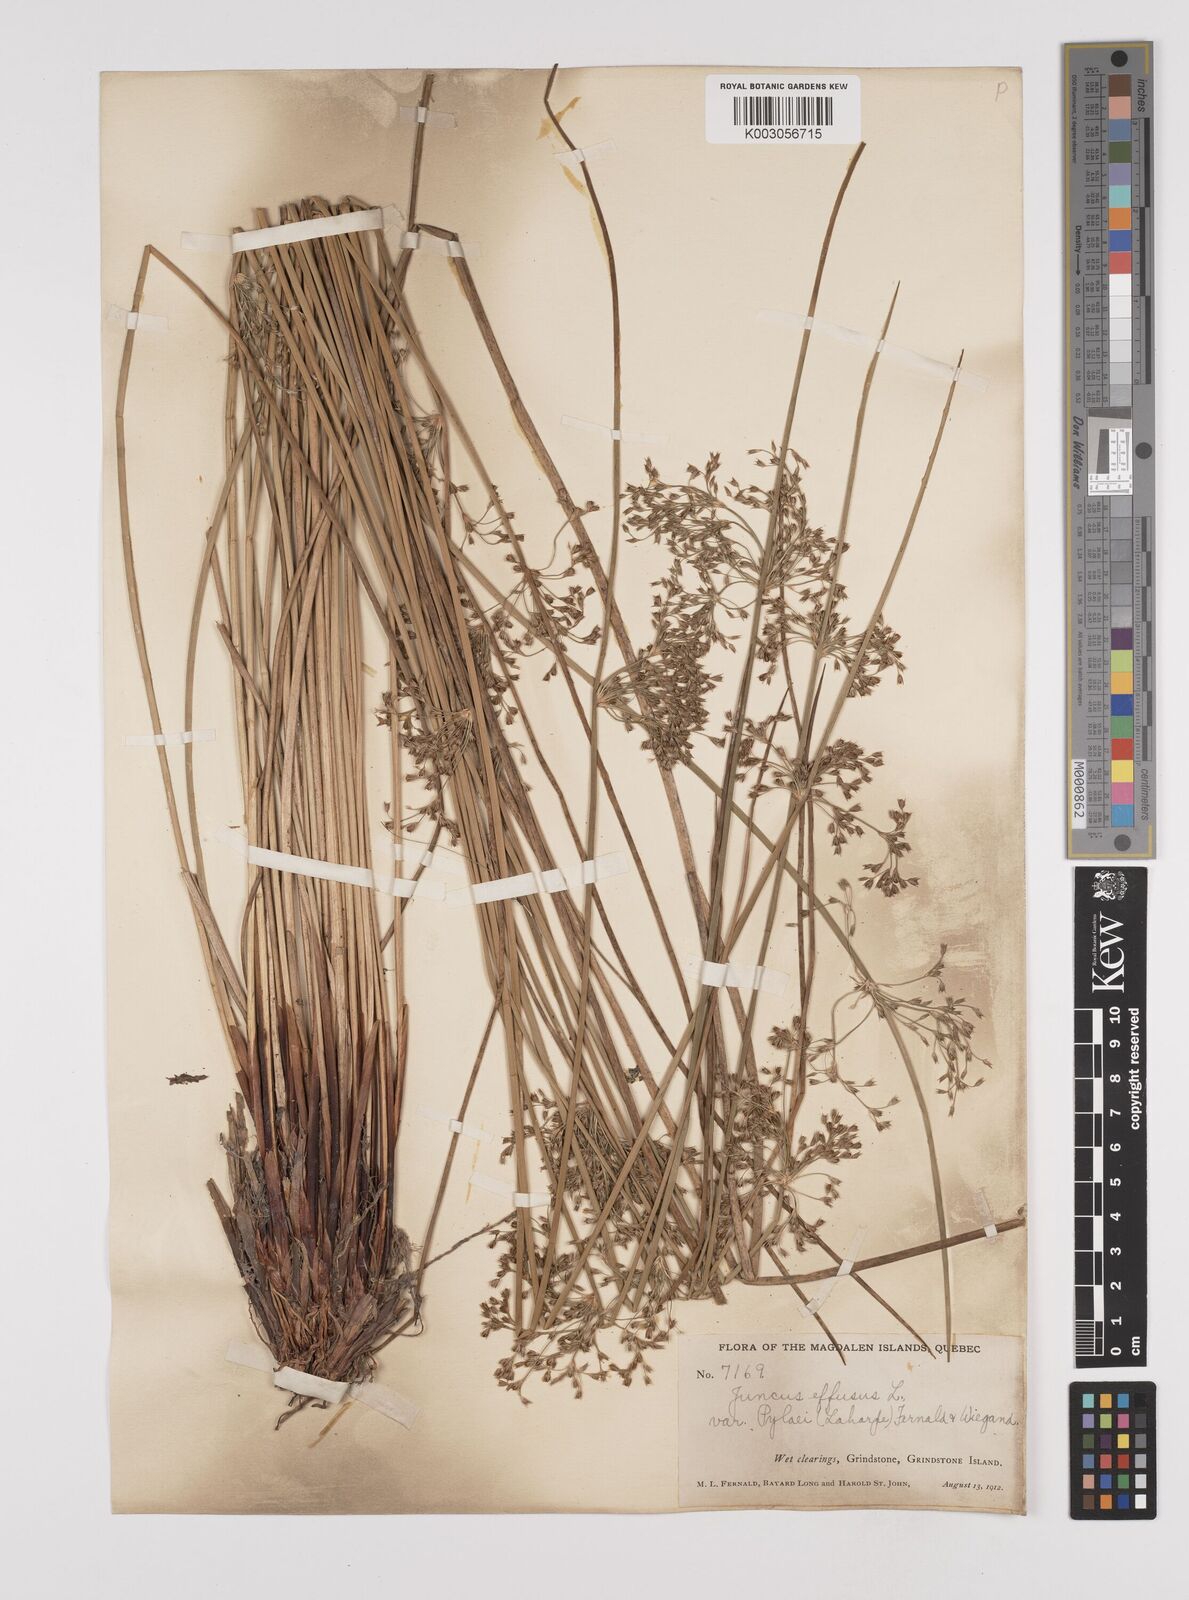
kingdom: Plantae
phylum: Tracheophyta
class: Liliopsida
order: Poales
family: Juncaceae
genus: Juncus
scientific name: Juncus pylaei
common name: Common rush
